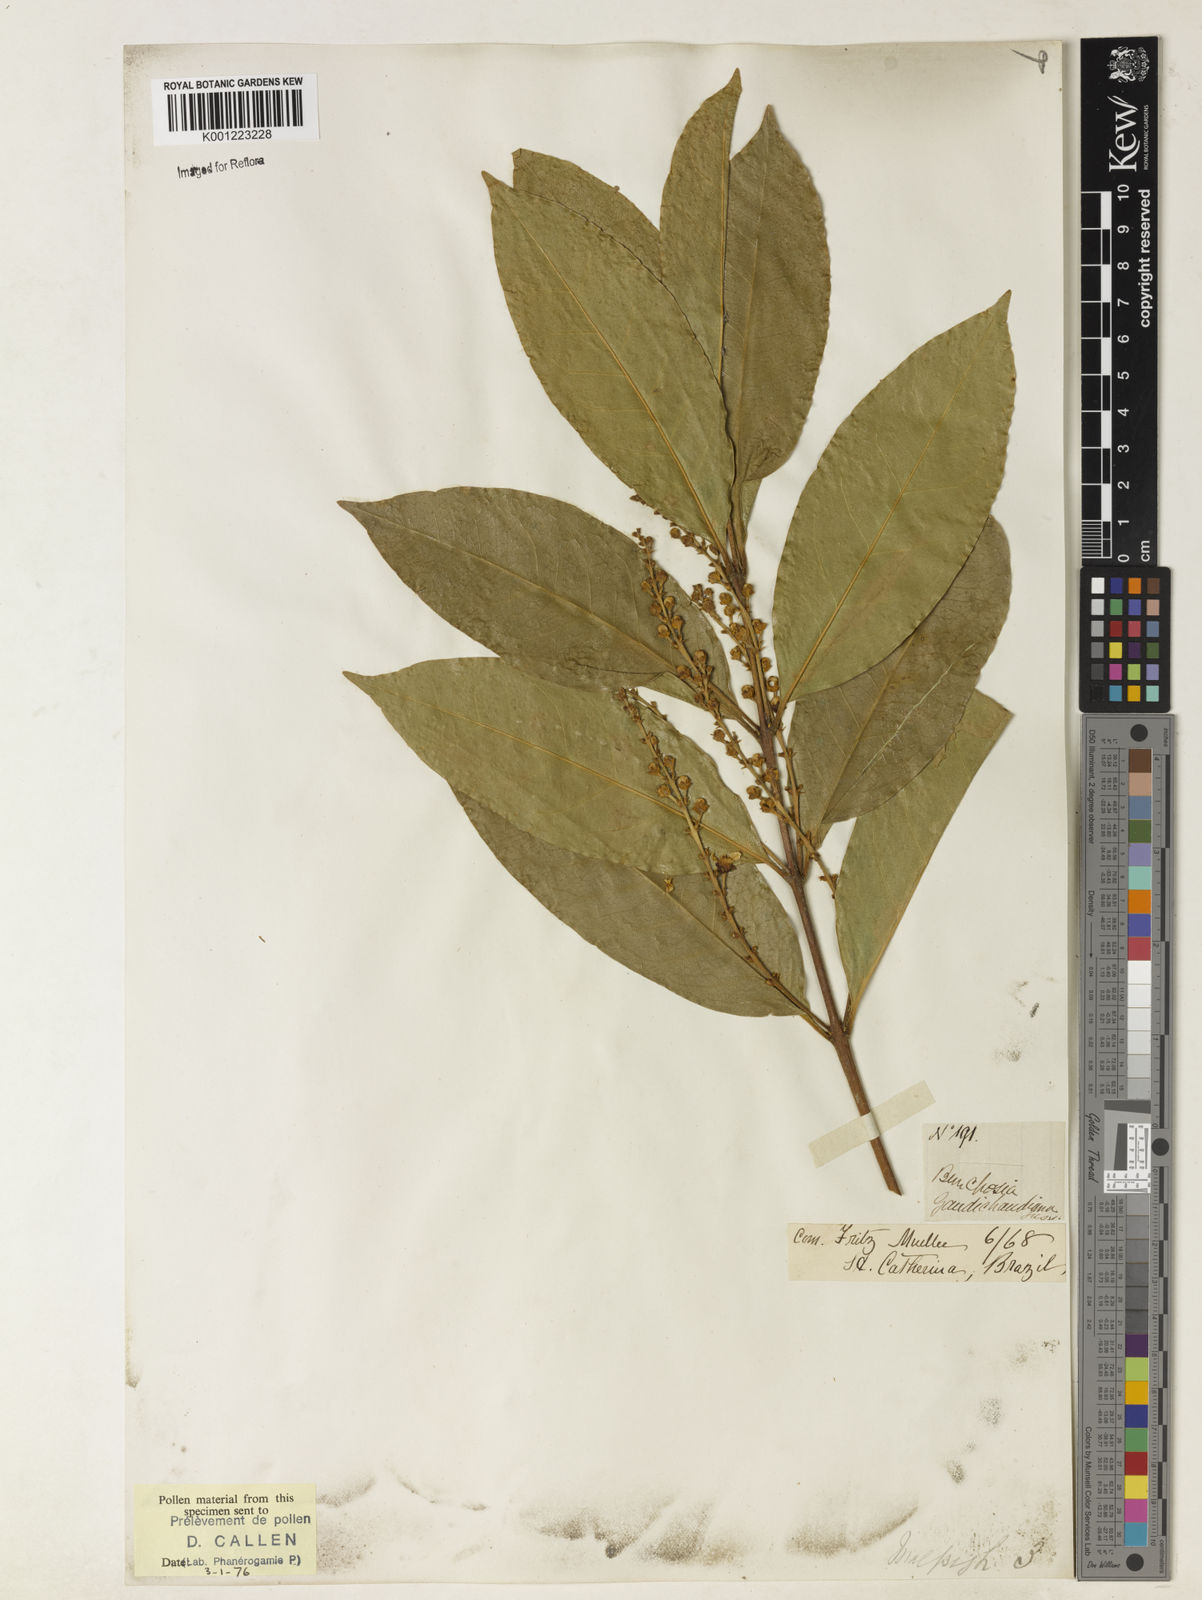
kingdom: Plantae
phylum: Tracheophyta
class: Magnoliopsida
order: Malpighiales
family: Malpighiaceae
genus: Bunchosia
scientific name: Bunchosia fluminensis
